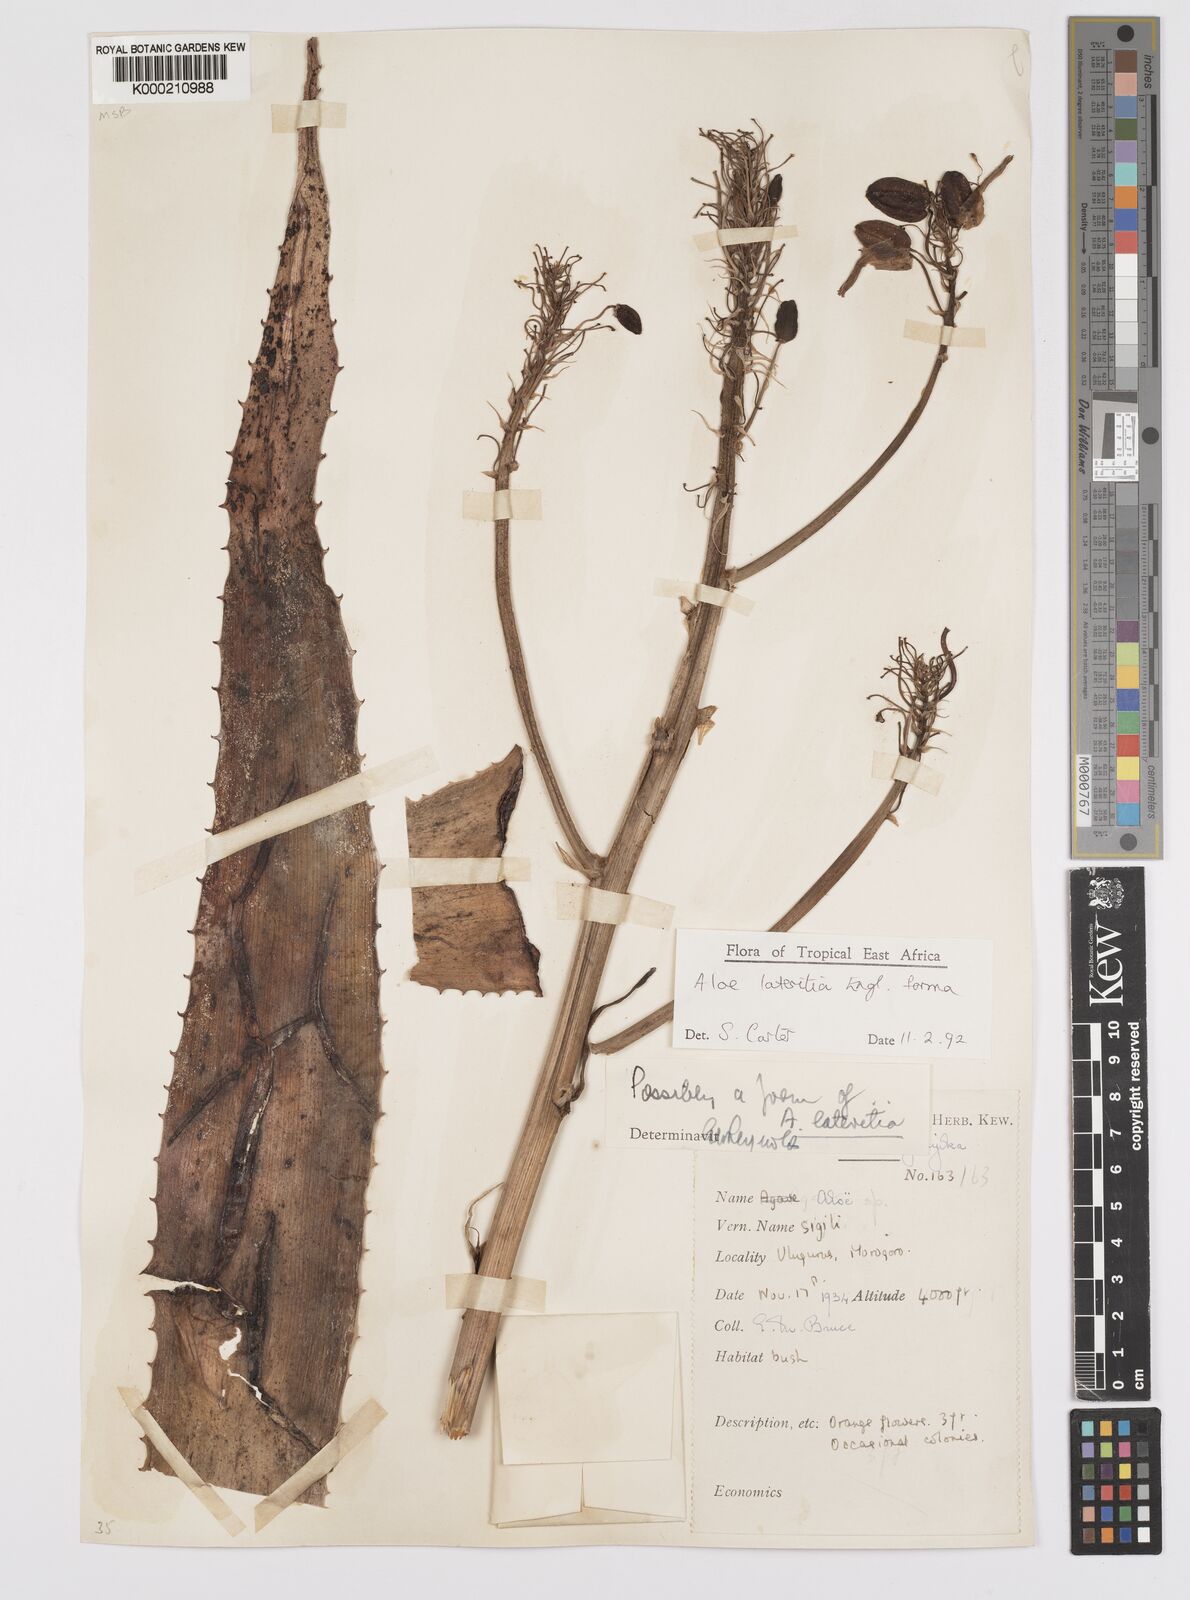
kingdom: Plantae
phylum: Tracheophyta
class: Liliopsida
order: Asparagales
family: Asphodelaceae
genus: Aloe
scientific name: Aloe lateritia
